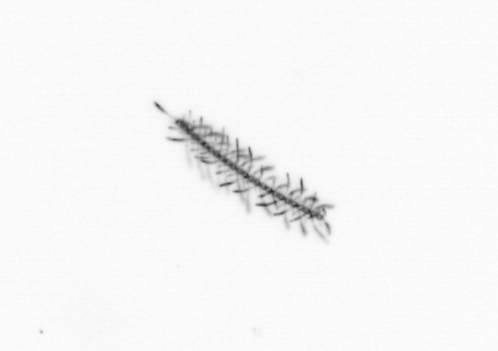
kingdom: Chromista
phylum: Ochrophyta
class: Bacillariophyceae
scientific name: Bacillariophyceae
